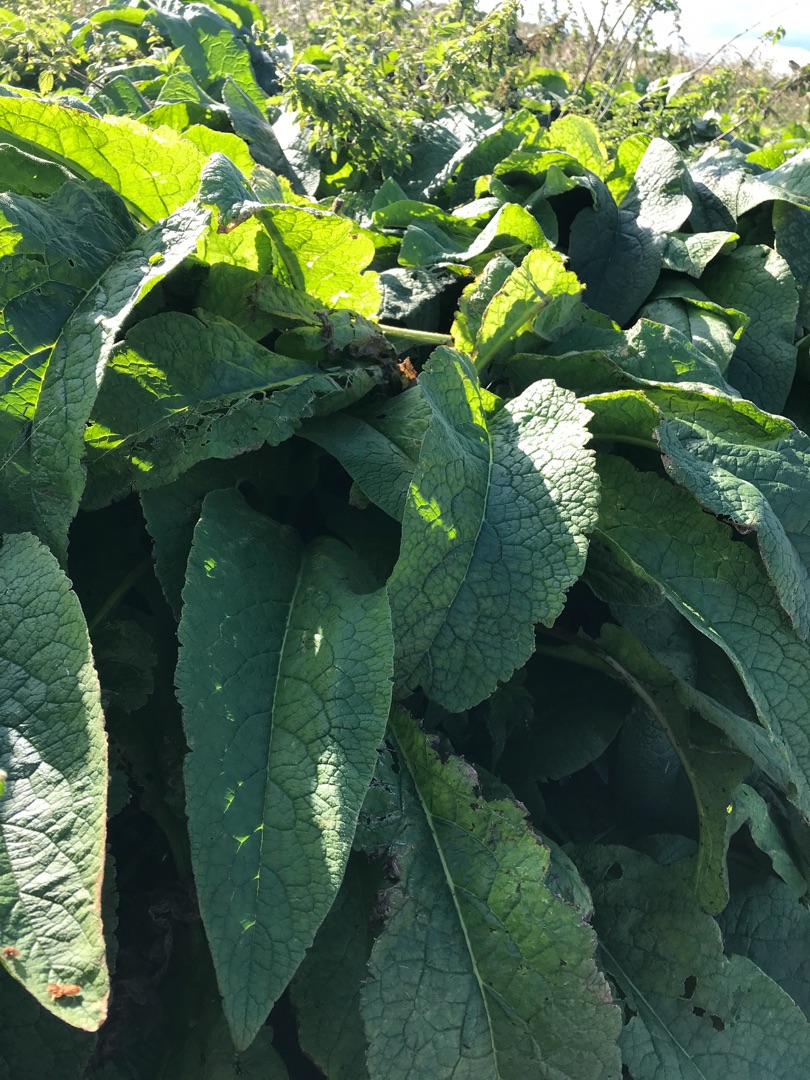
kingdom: Plantae
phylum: Tracheophyta
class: Magnoliopsida
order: Boraginales
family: Boraginaceae
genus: Symphytum
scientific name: Symphytum uplandicum
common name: Foder-kulsukker
